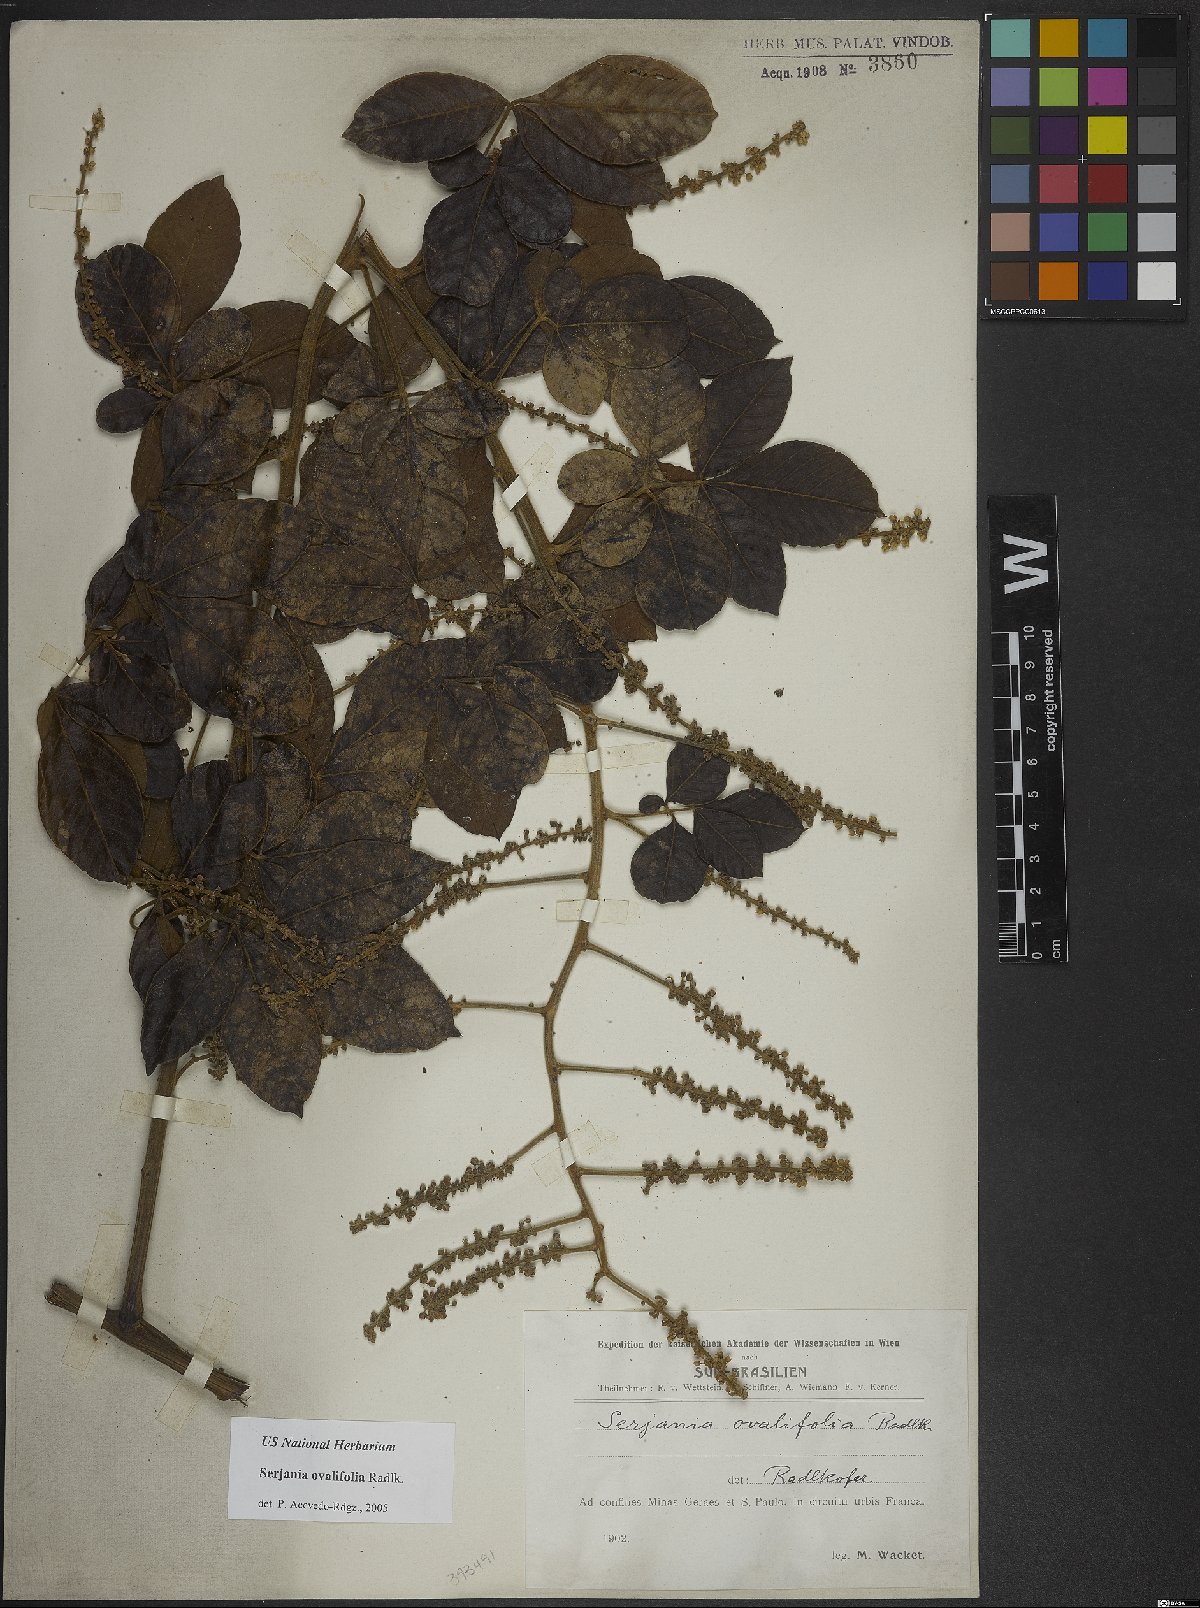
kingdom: Plantae
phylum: Tracheophyta
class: Magnoliopsida
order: Sapindales
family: Sapindaceae
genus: Serjania
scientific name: Serjania ovalifolia
